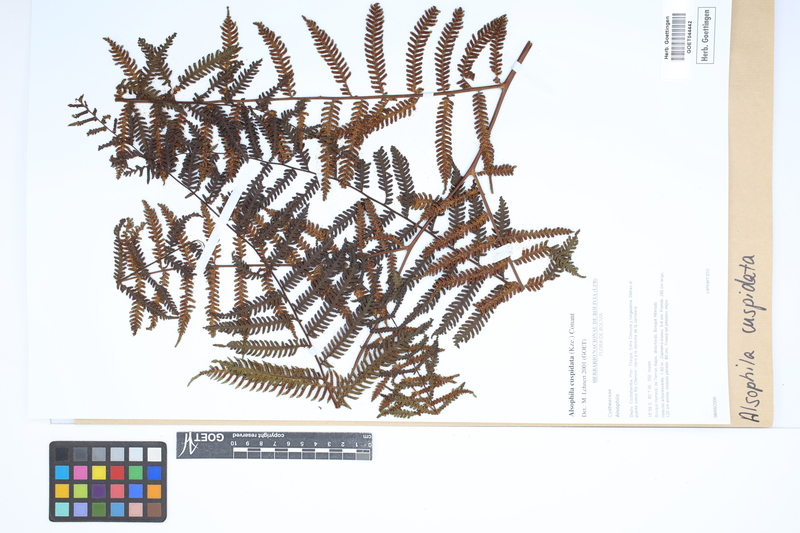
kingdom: Plantae
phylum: Tracheophyta
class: Polypodiopsida
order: Cyatheales
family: Cyatheaceae
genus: Alsophila
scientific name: Alsophila cuspidata
